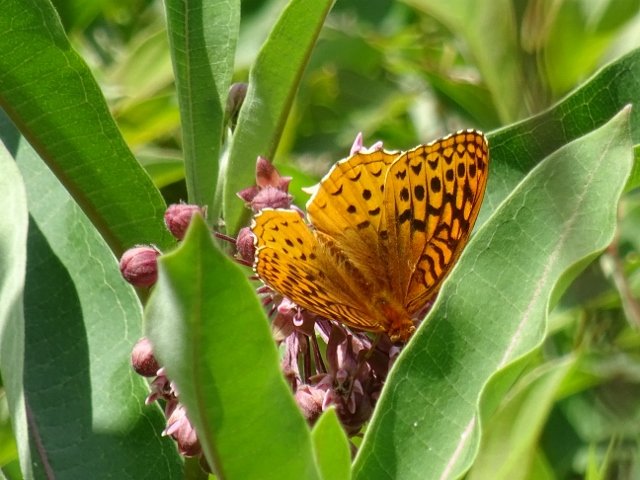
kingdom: Animalia
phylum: Arthropoda
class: Insecta
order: Lepidoptera
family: Nymphalidae
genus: Speyeria
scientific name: Speyeria cybele
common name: Great Spangled Fritillary
